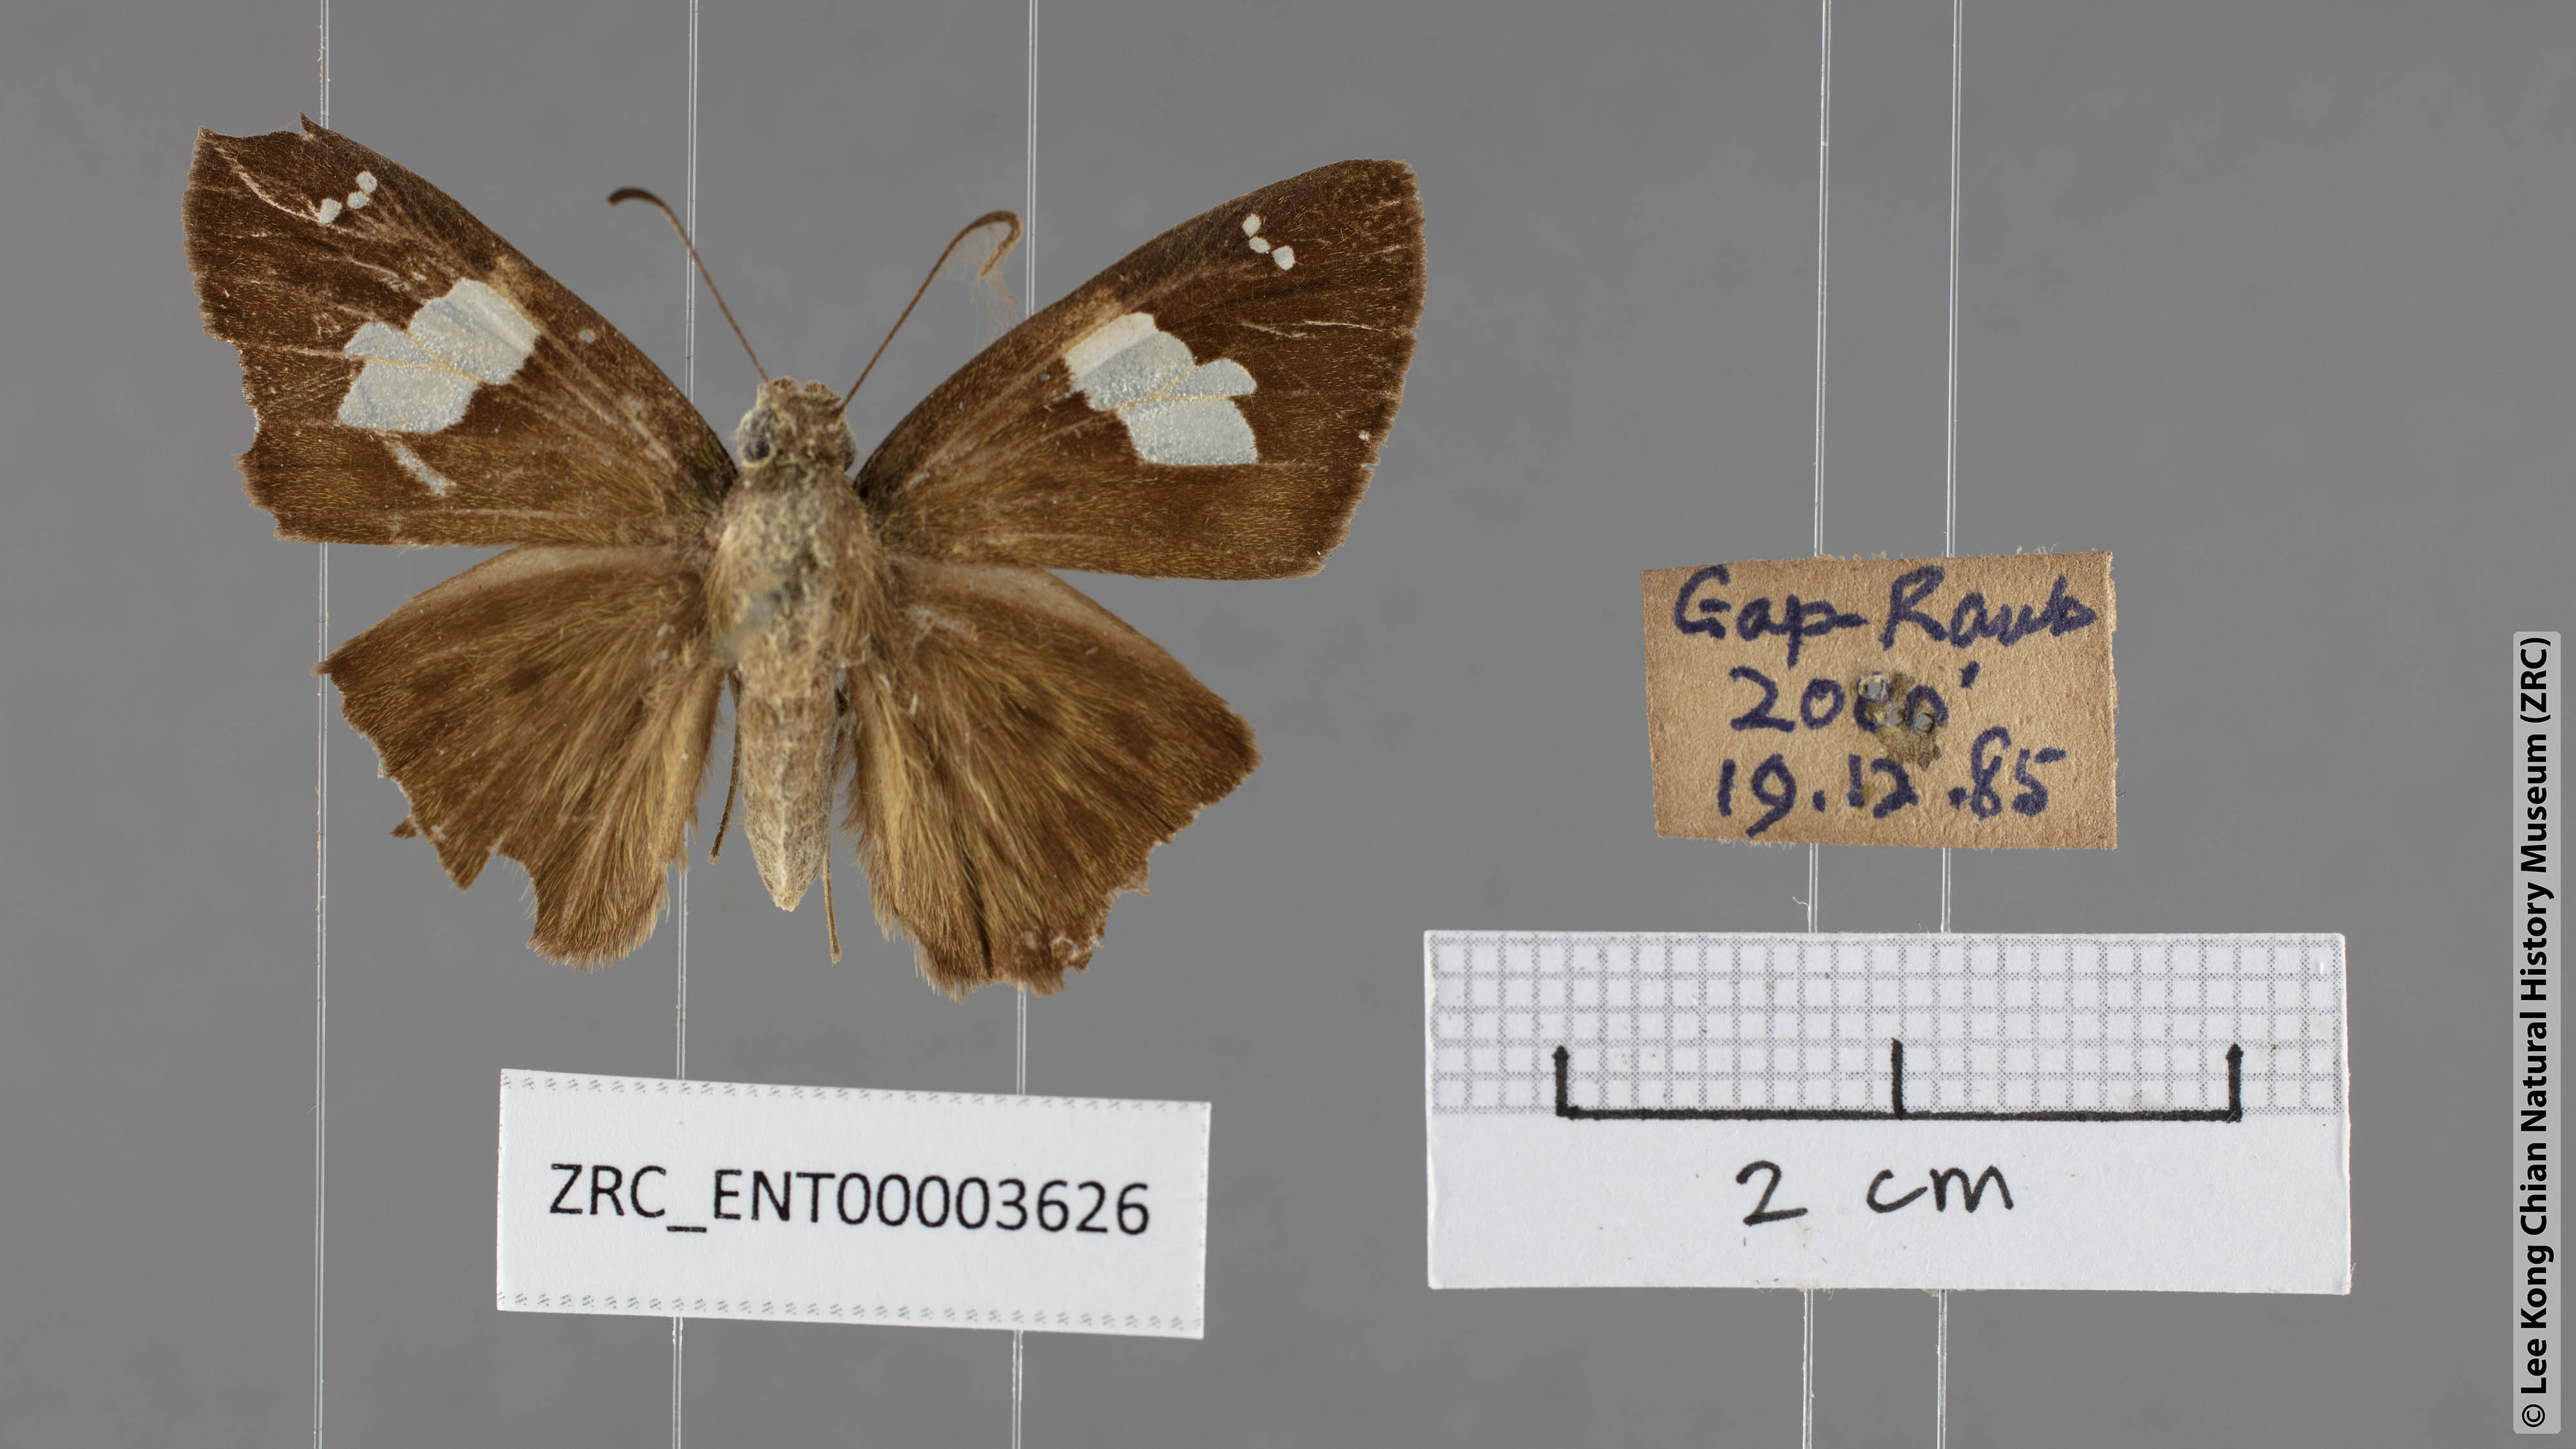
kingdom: Animalia
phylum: Arthropoda
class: Insecta
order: Lepidoptera
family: Hesperiidae
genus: Celaenorrhinus
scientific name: Celaenorrhinus asmara
